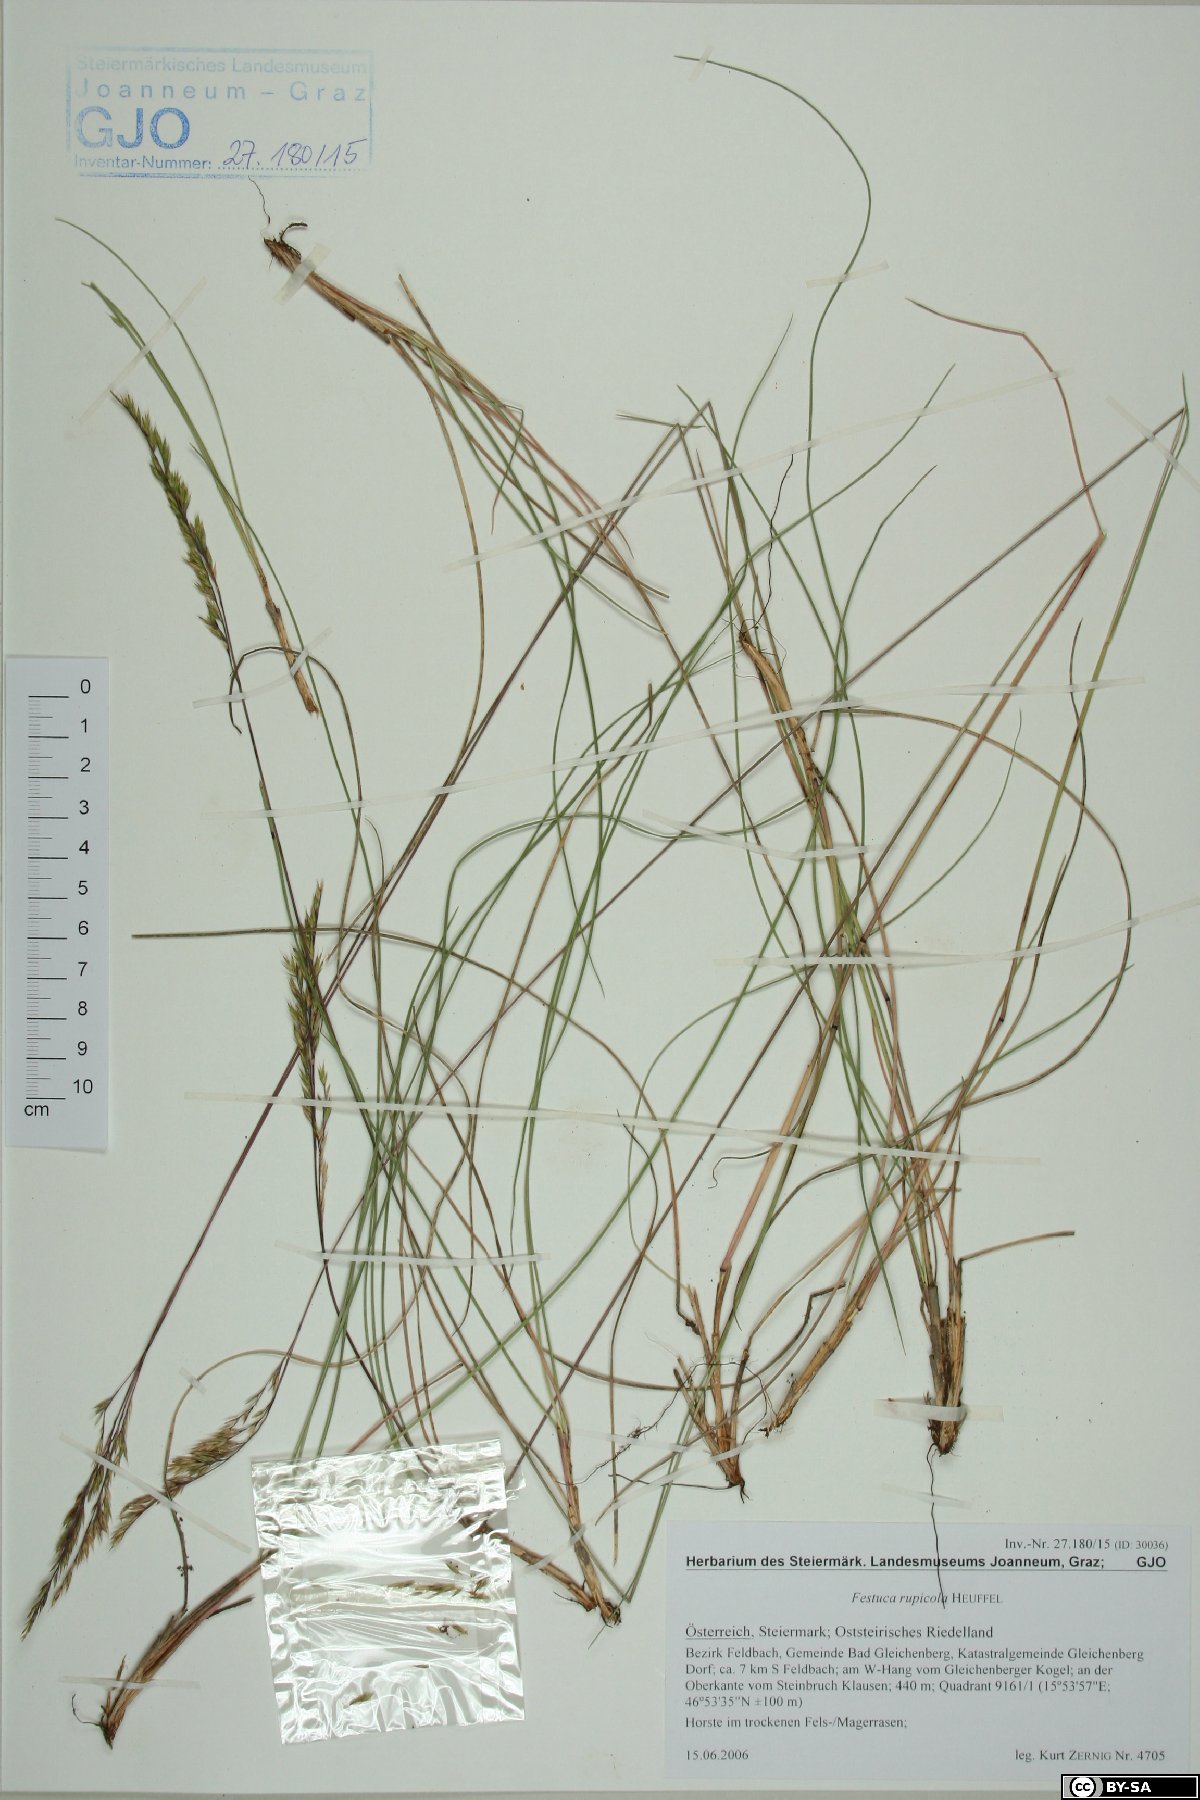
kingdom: Plantae
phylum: Tracheophyta
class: Liliopsida
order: Poales
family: Poaceae
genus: Festuca
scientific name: Festuca rupicola
